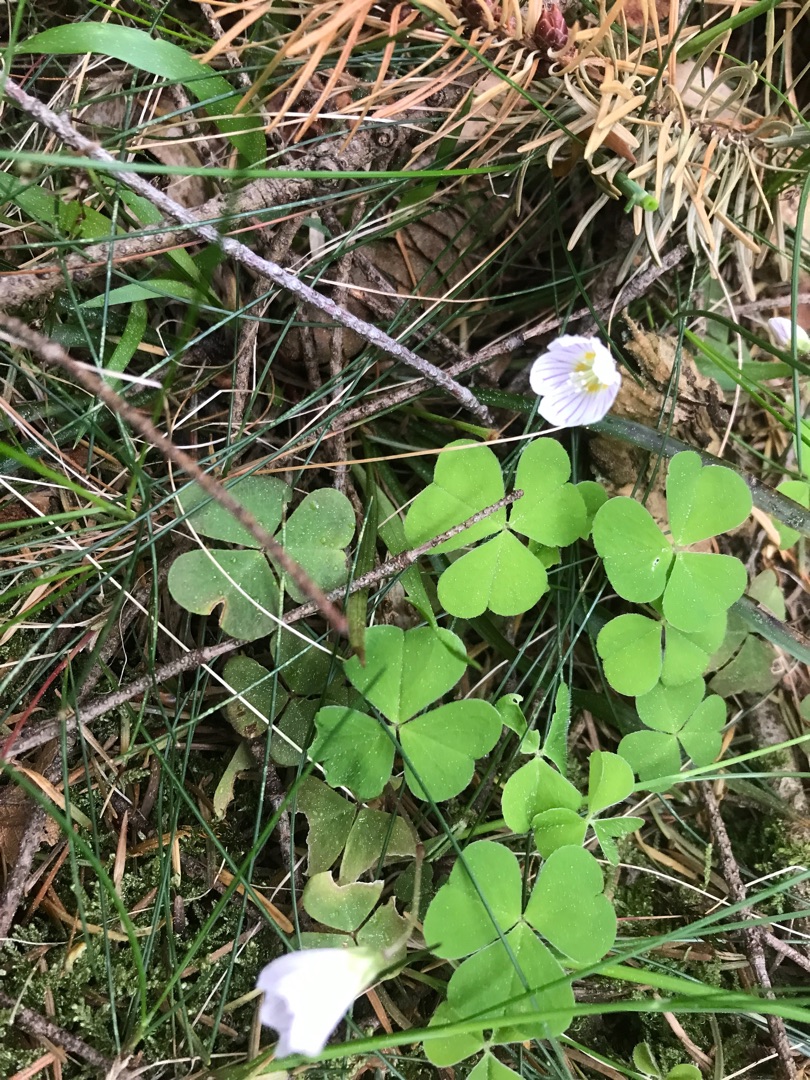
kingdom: Plantae
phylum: Tracheophyta
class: Magnoliopsida
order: Oxalidales
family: Oxalidaceae
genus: Oxalis
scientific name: Oxalis acetosella
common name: Skovsyre
